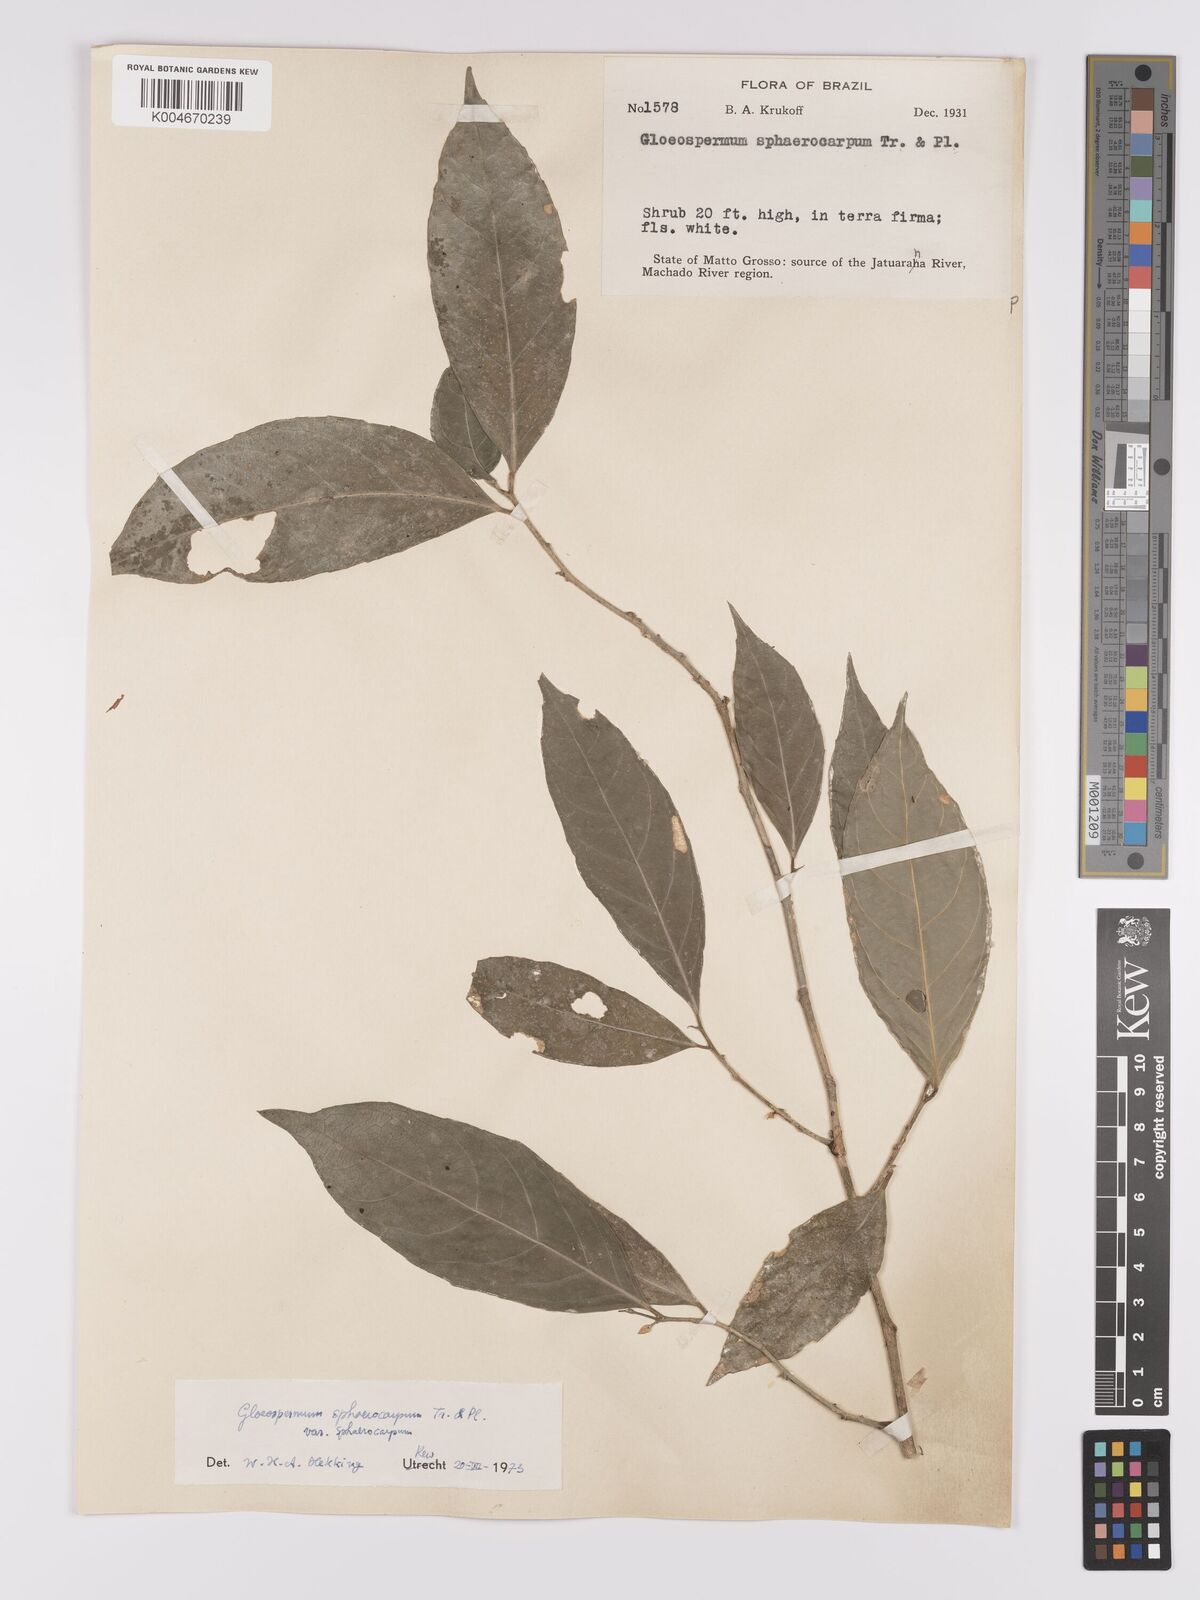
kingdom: Plantae
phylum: Tracheophyta
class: Magnoliopsida
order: Malpighiales
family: Violaceae
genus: Gloeospermum
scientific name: Gloeospermum sphaerocarpum
